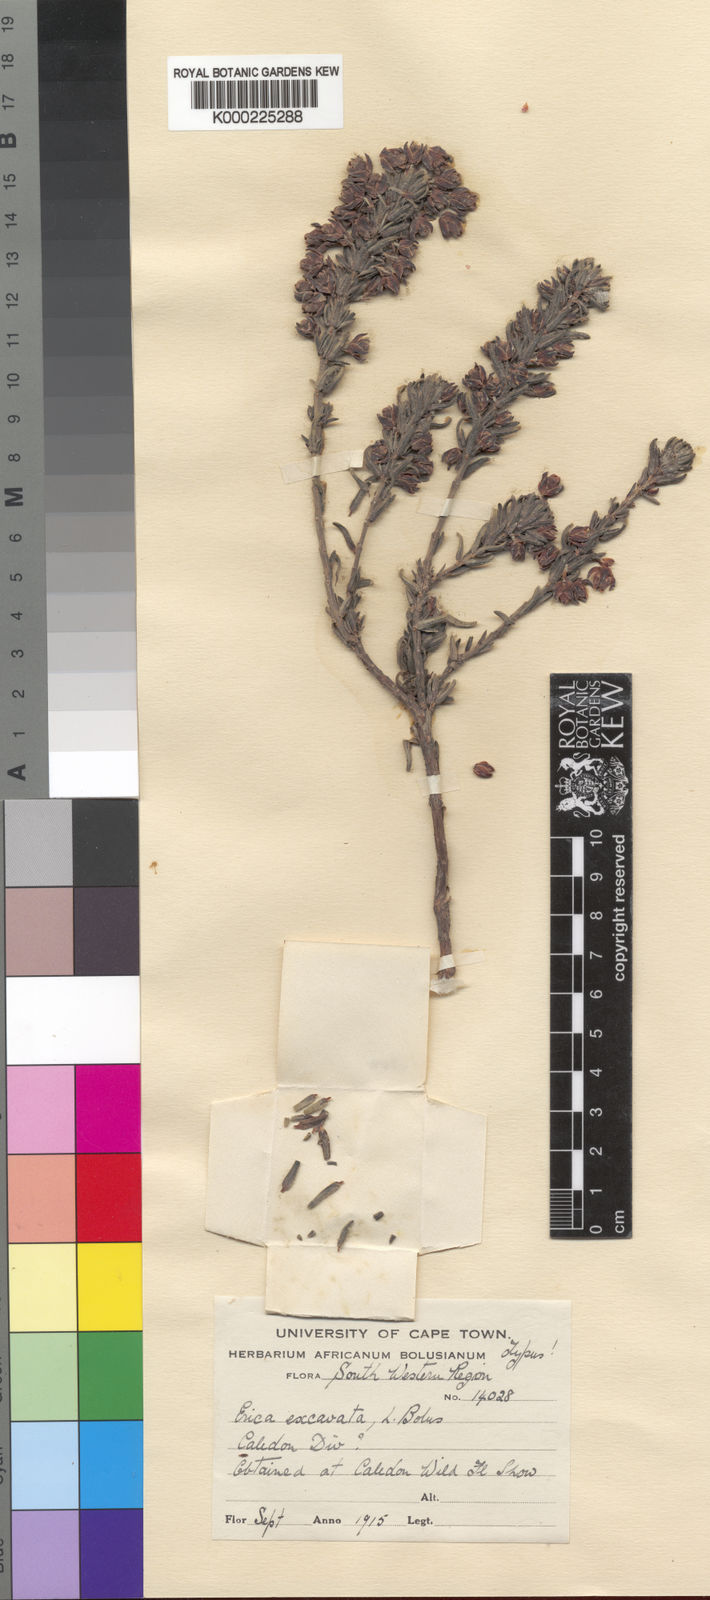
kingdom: Plantae
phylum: Tracheophyta
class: Magnoliopsida
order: Ericales
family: Ericaceae
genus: Erica
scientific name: Erica excavata
